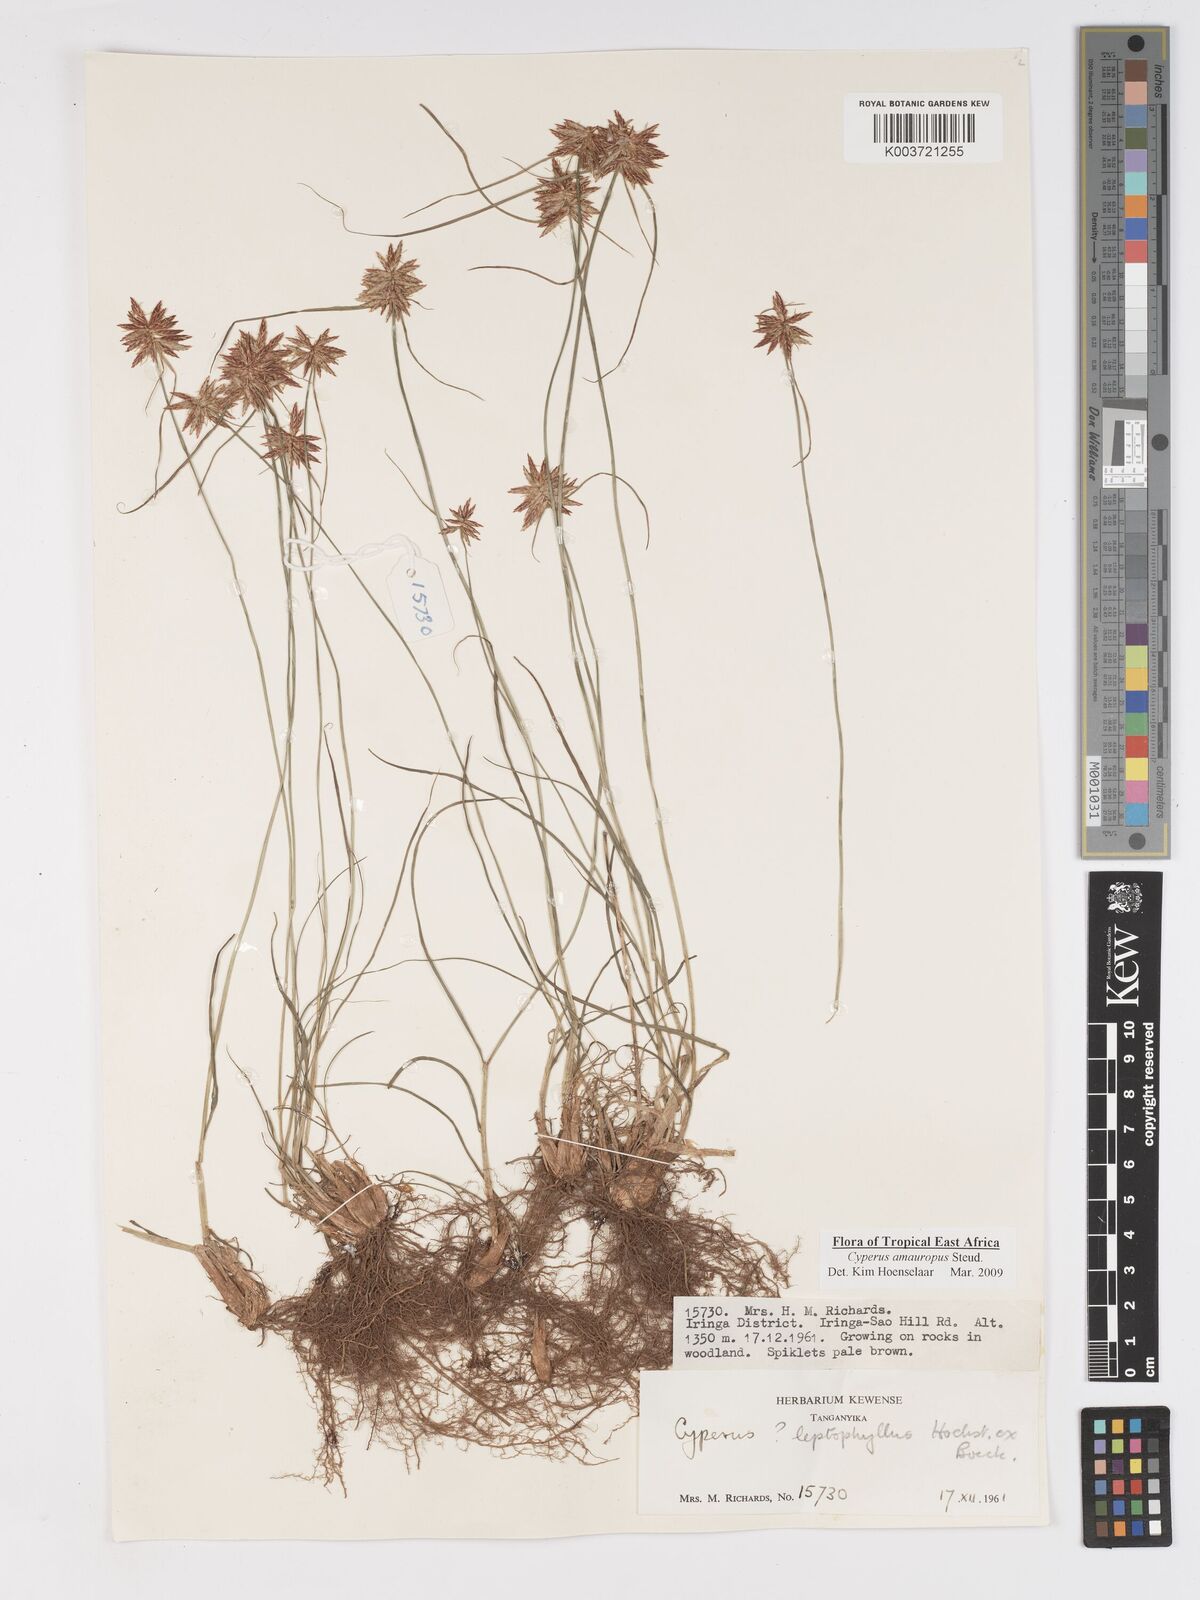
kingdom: Plantae
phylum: Tracheophyta
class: Liliopsida
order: Poales
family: Cyperaceae
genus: Cyperus
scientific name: Cyperus amauropus
